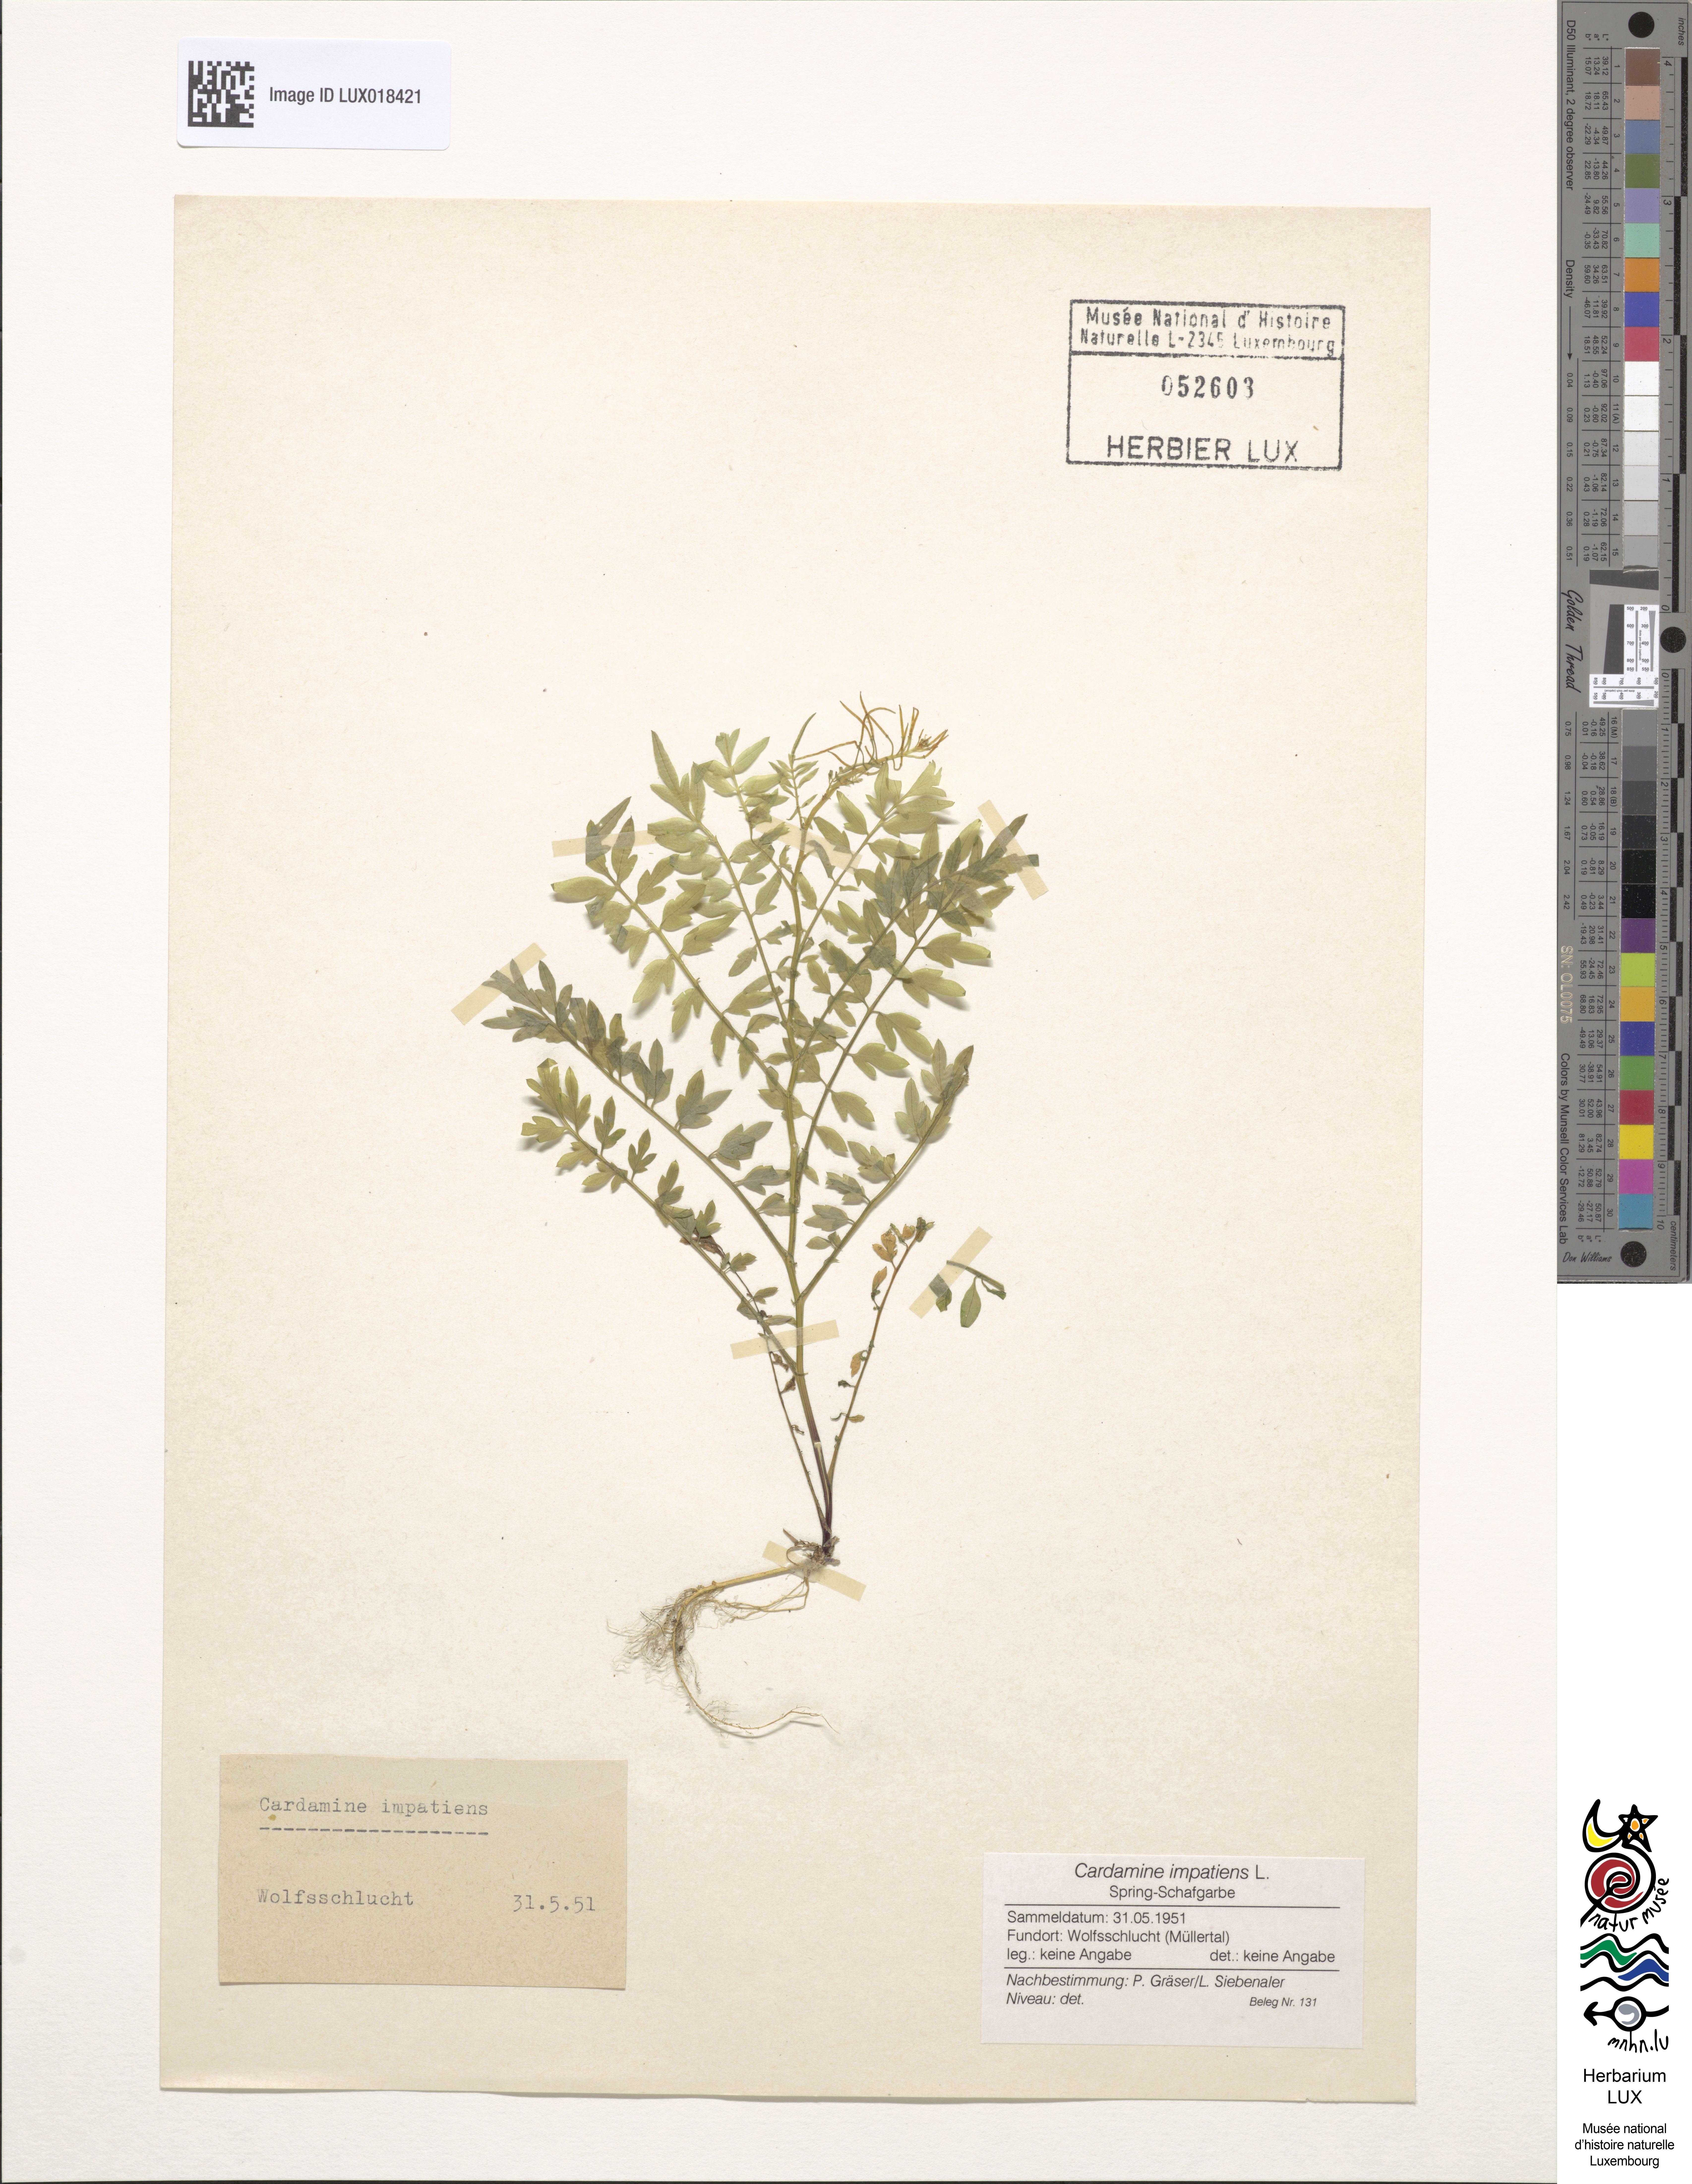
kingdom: Plantae
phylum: Tracheophyta
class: Magnoliopsida
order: Brassicales
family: Brassicaceae
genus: Cardamine
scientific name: Cardamine impatiens
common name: Narrow-leaved bitter-cress
